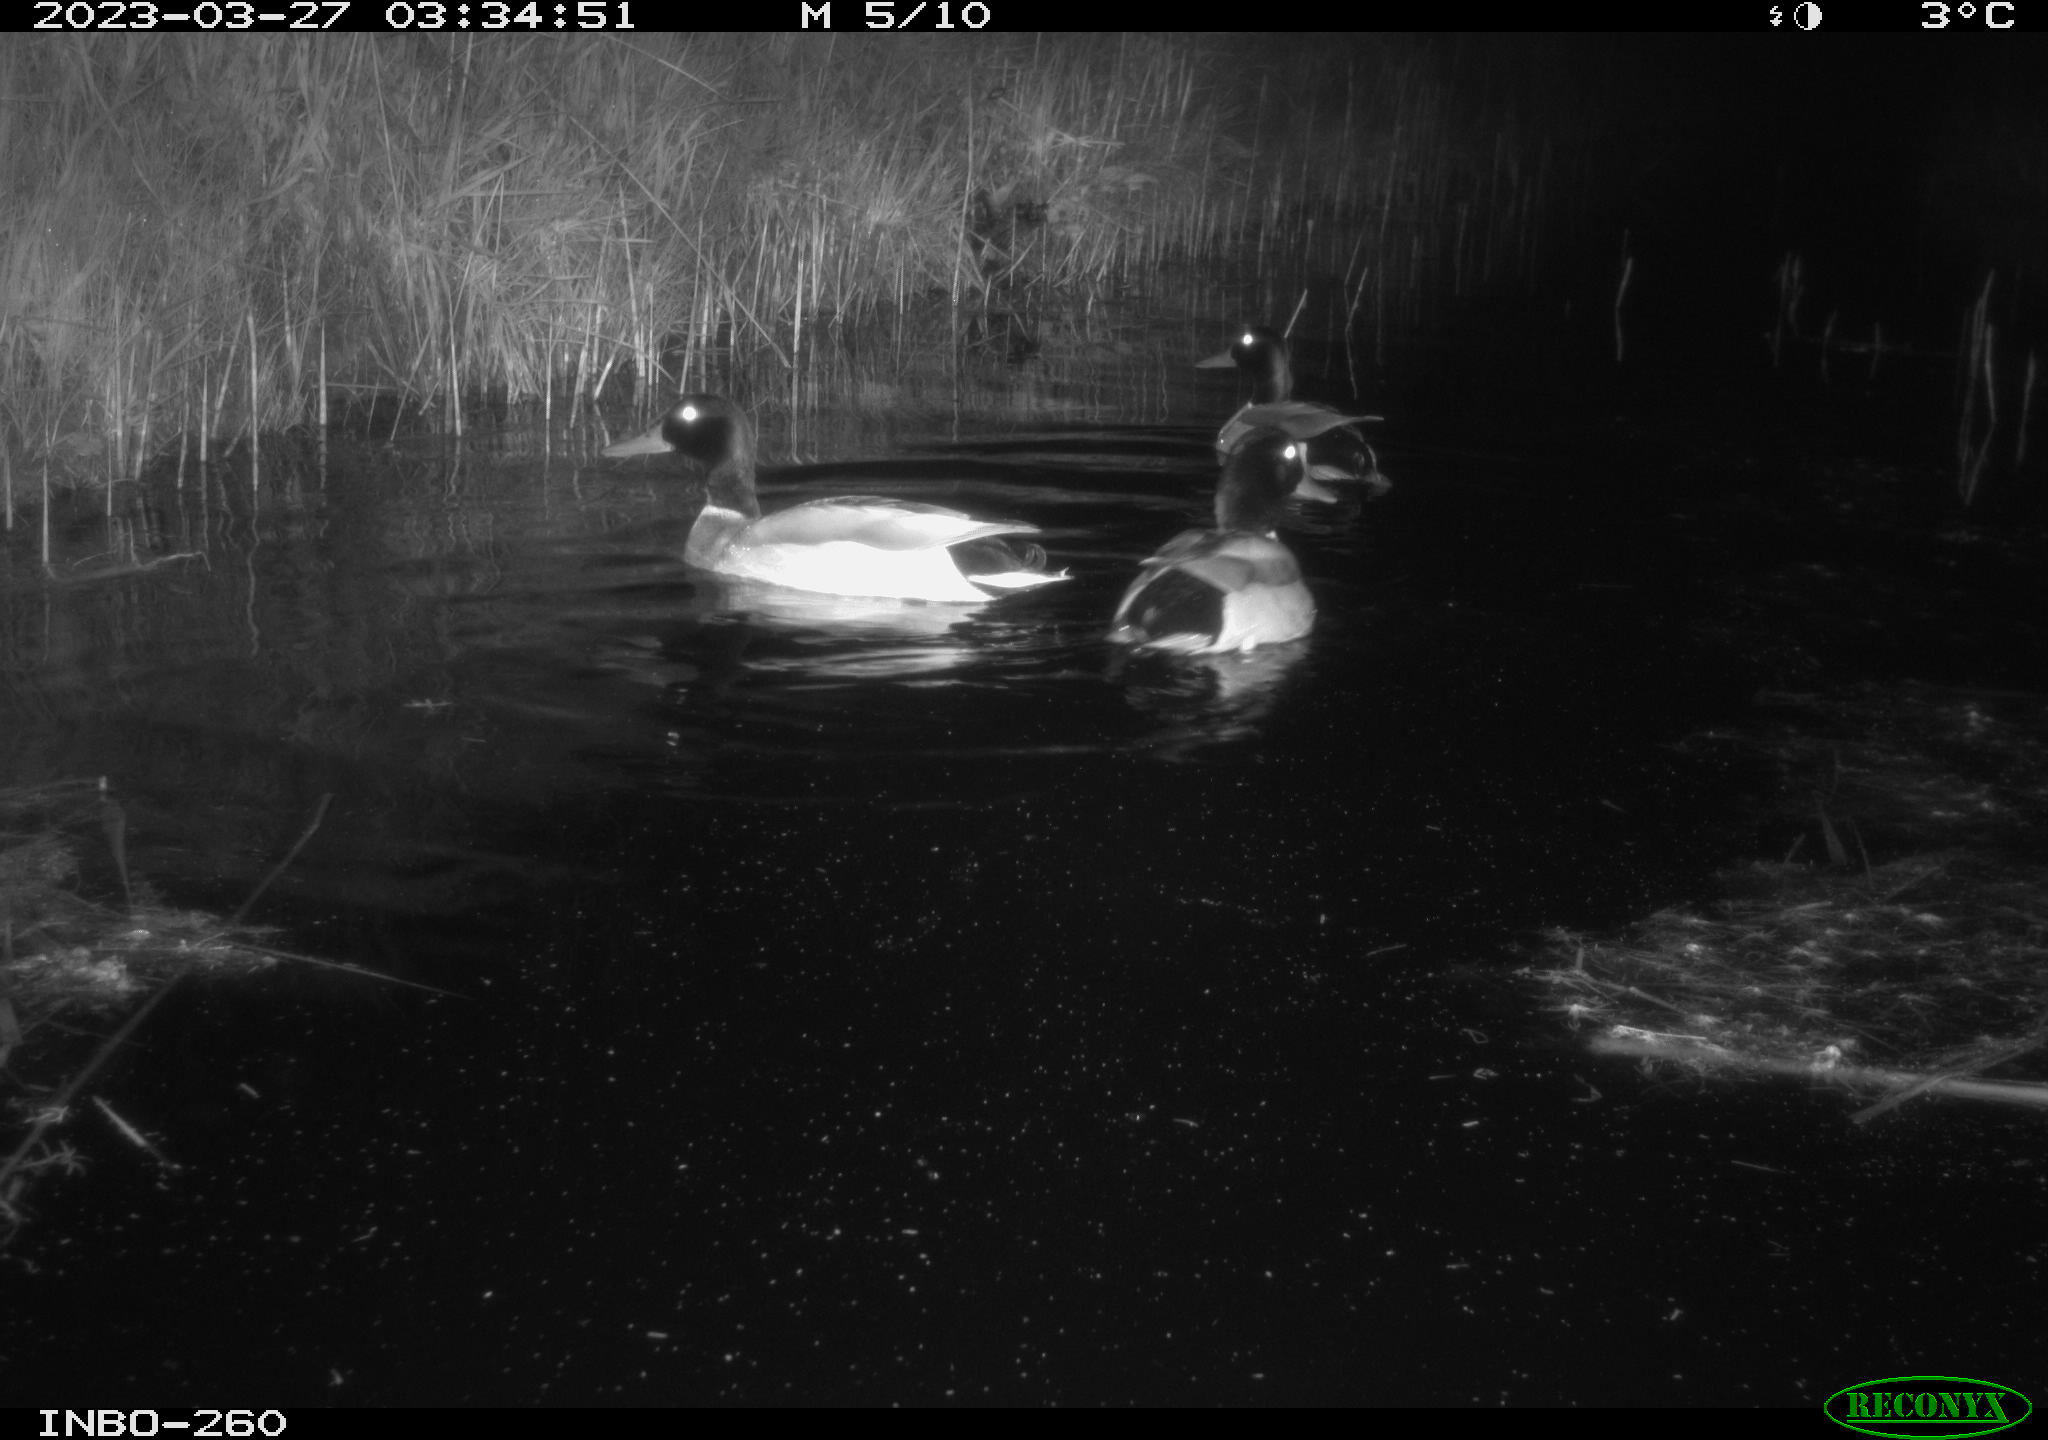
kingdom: Animalia
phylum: Chordata
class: Aves
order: Anseriformes
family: Anatidae
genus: Anas
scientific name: Anas
